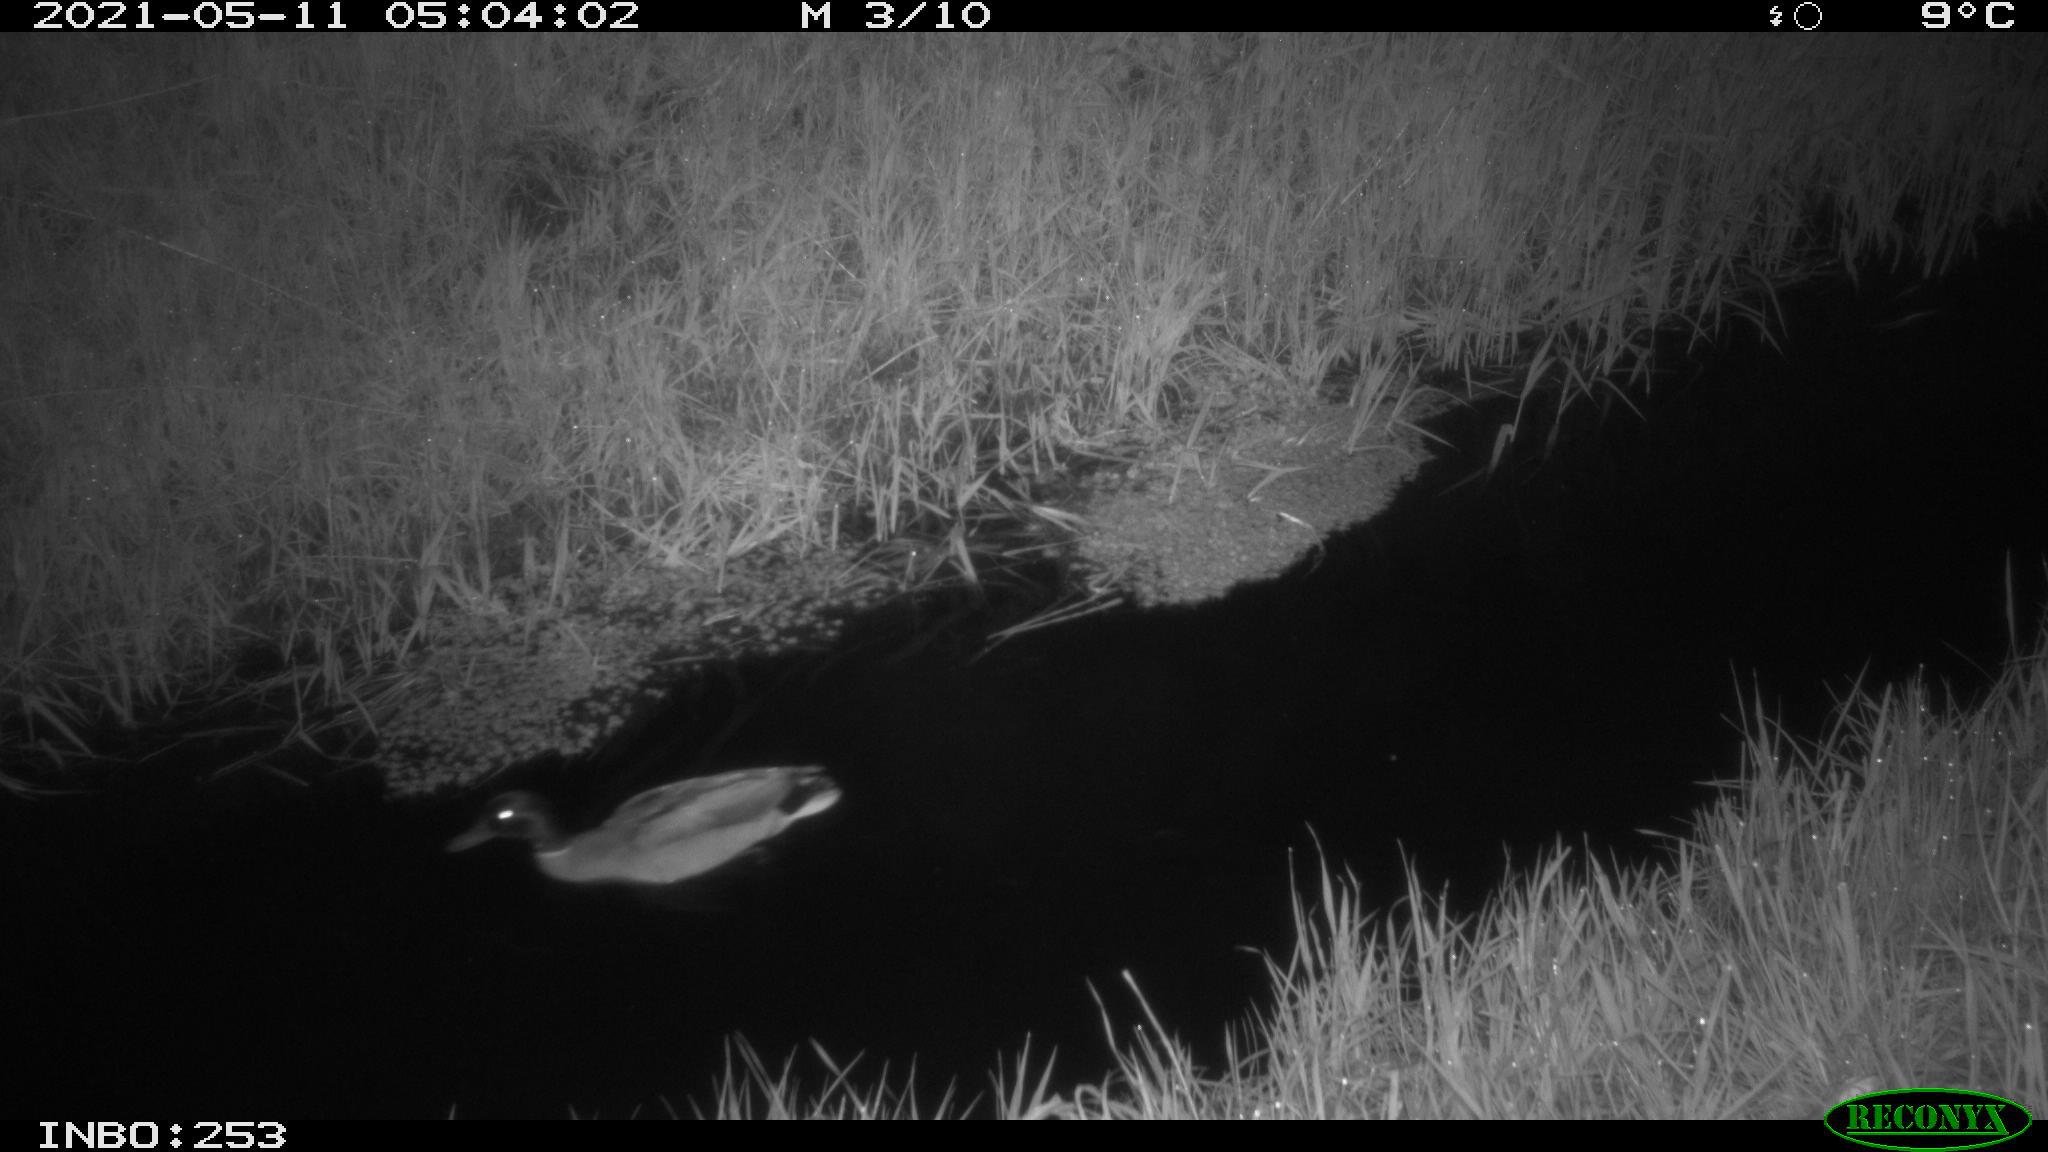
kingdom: Animalia
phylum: Chordata
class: Aves
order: Anseriformes
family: Anatidae
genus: Anas
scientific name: Anas platyrhynchos
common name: Mallard
